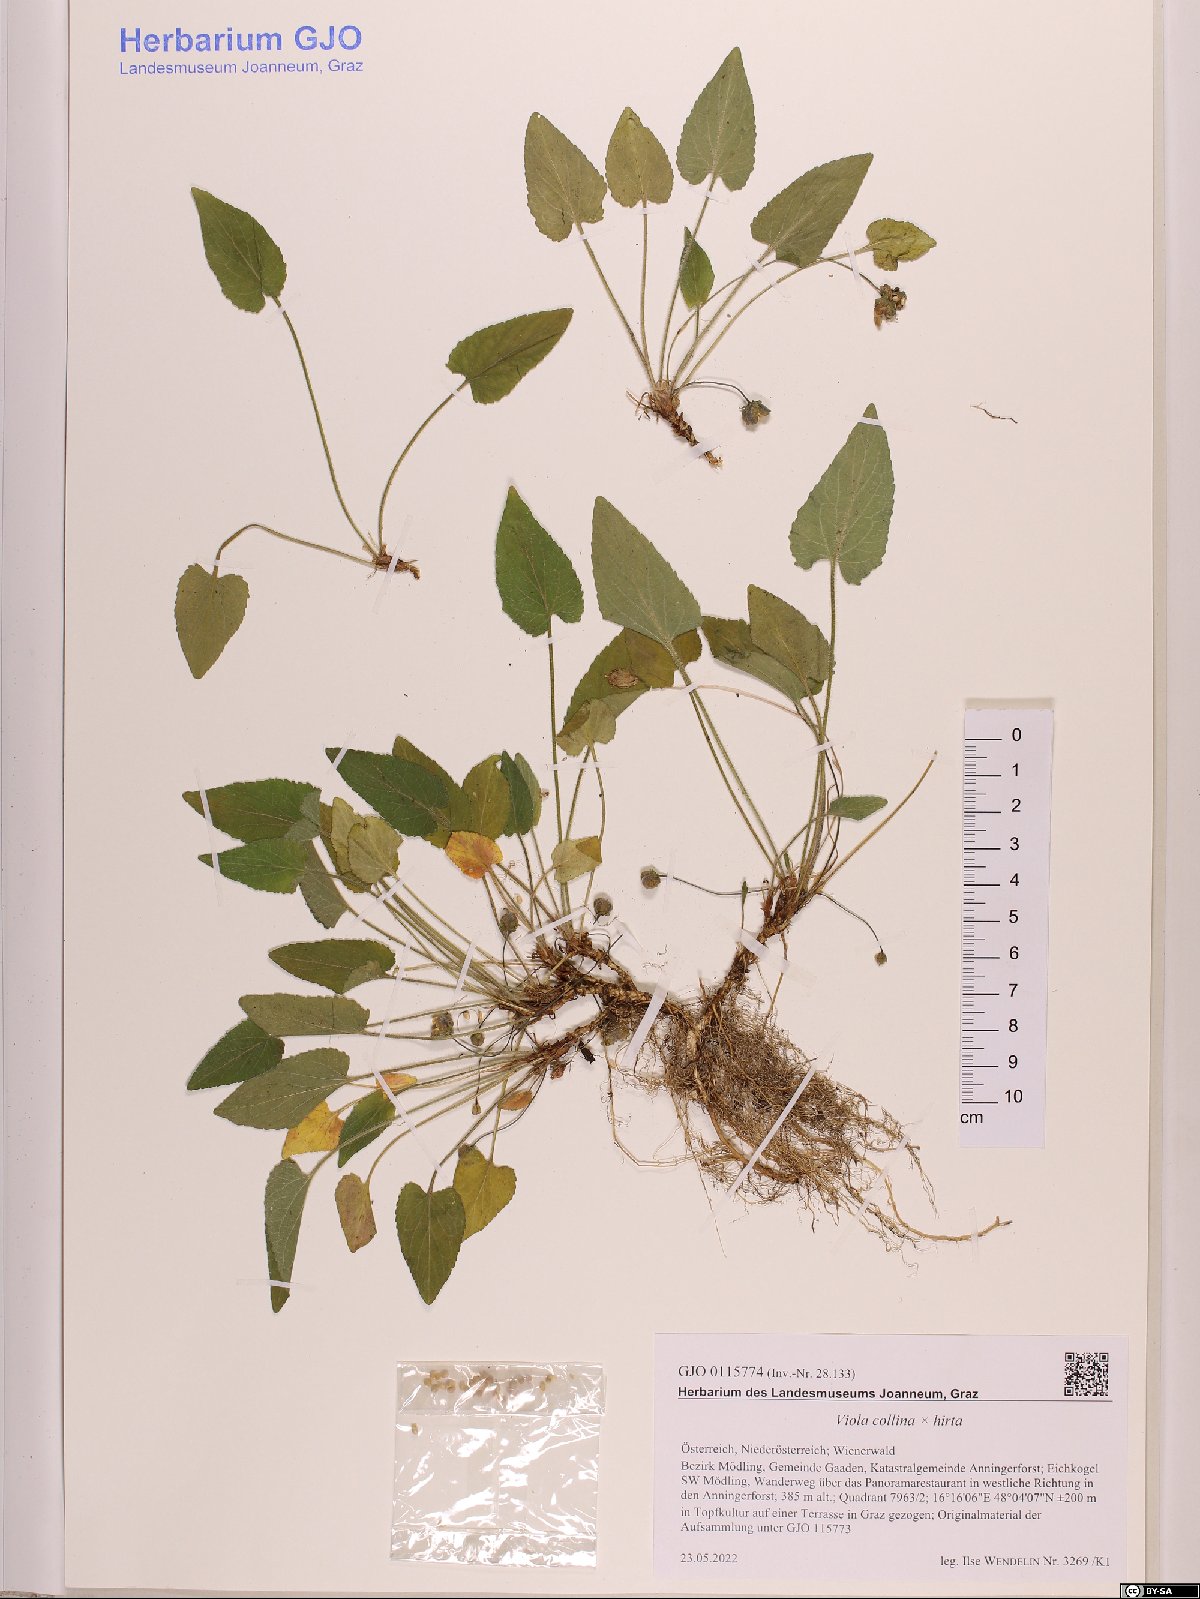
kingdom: Plantae
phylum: Tracheophyta
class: Magnoliopsida
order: Malpighiales
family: Violaceae
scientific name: Violaceae
